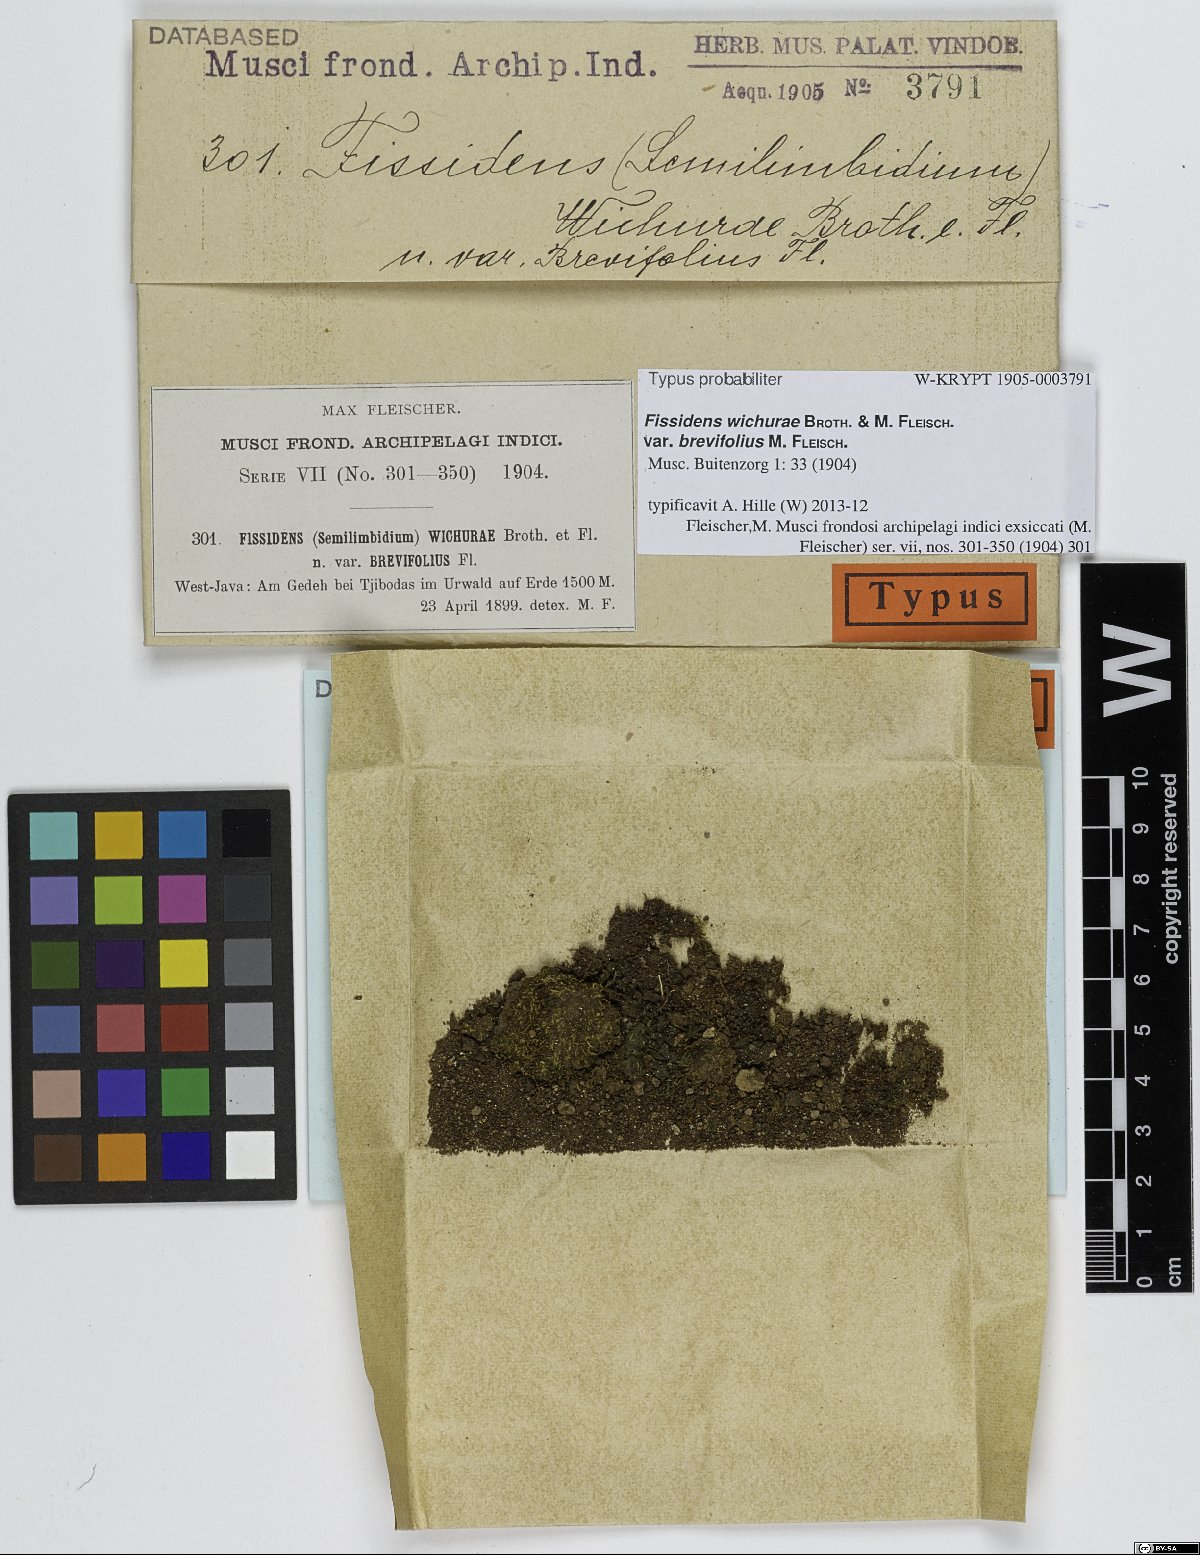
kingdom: Plantae
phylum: Bryophyta
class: Bryopsida
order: Dicranales
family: Fissidentaceae
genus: Fissidens
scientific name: Fissidens wichurae
